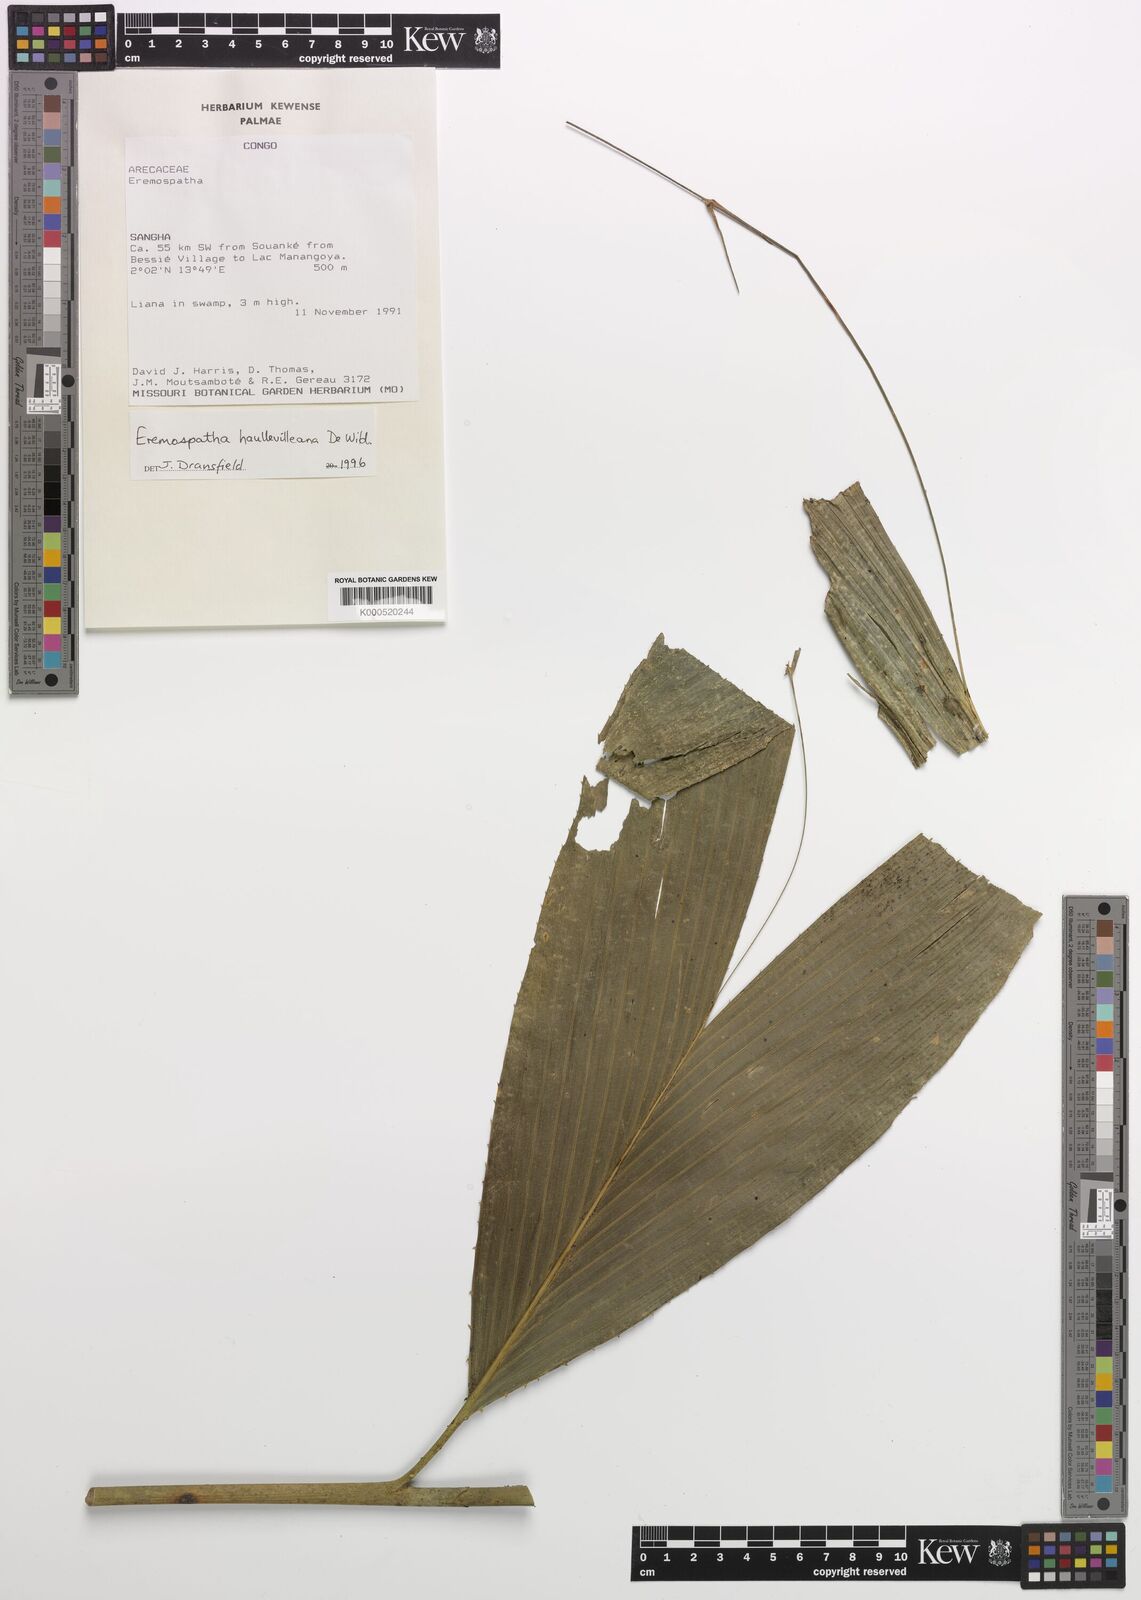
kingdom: Plantae
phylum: Tracheophyta
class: Liliopsida
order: Arecales
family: Arecaceae
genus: Eremospatha
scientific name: Eremospatha haullevilleana
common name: Rattan
